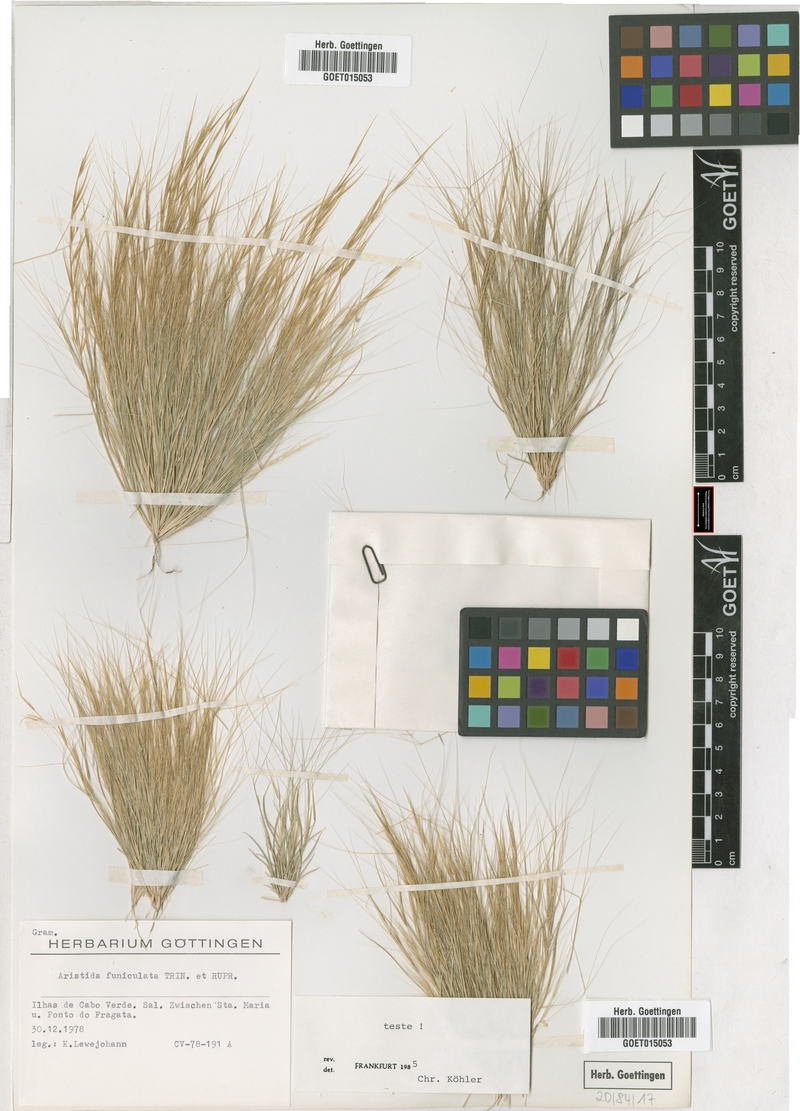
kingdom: Plantae
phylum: Tracheophyta
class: Liliopsida
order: Poales
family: Poaceae
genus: Aristida
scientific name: Aristida funiculata
